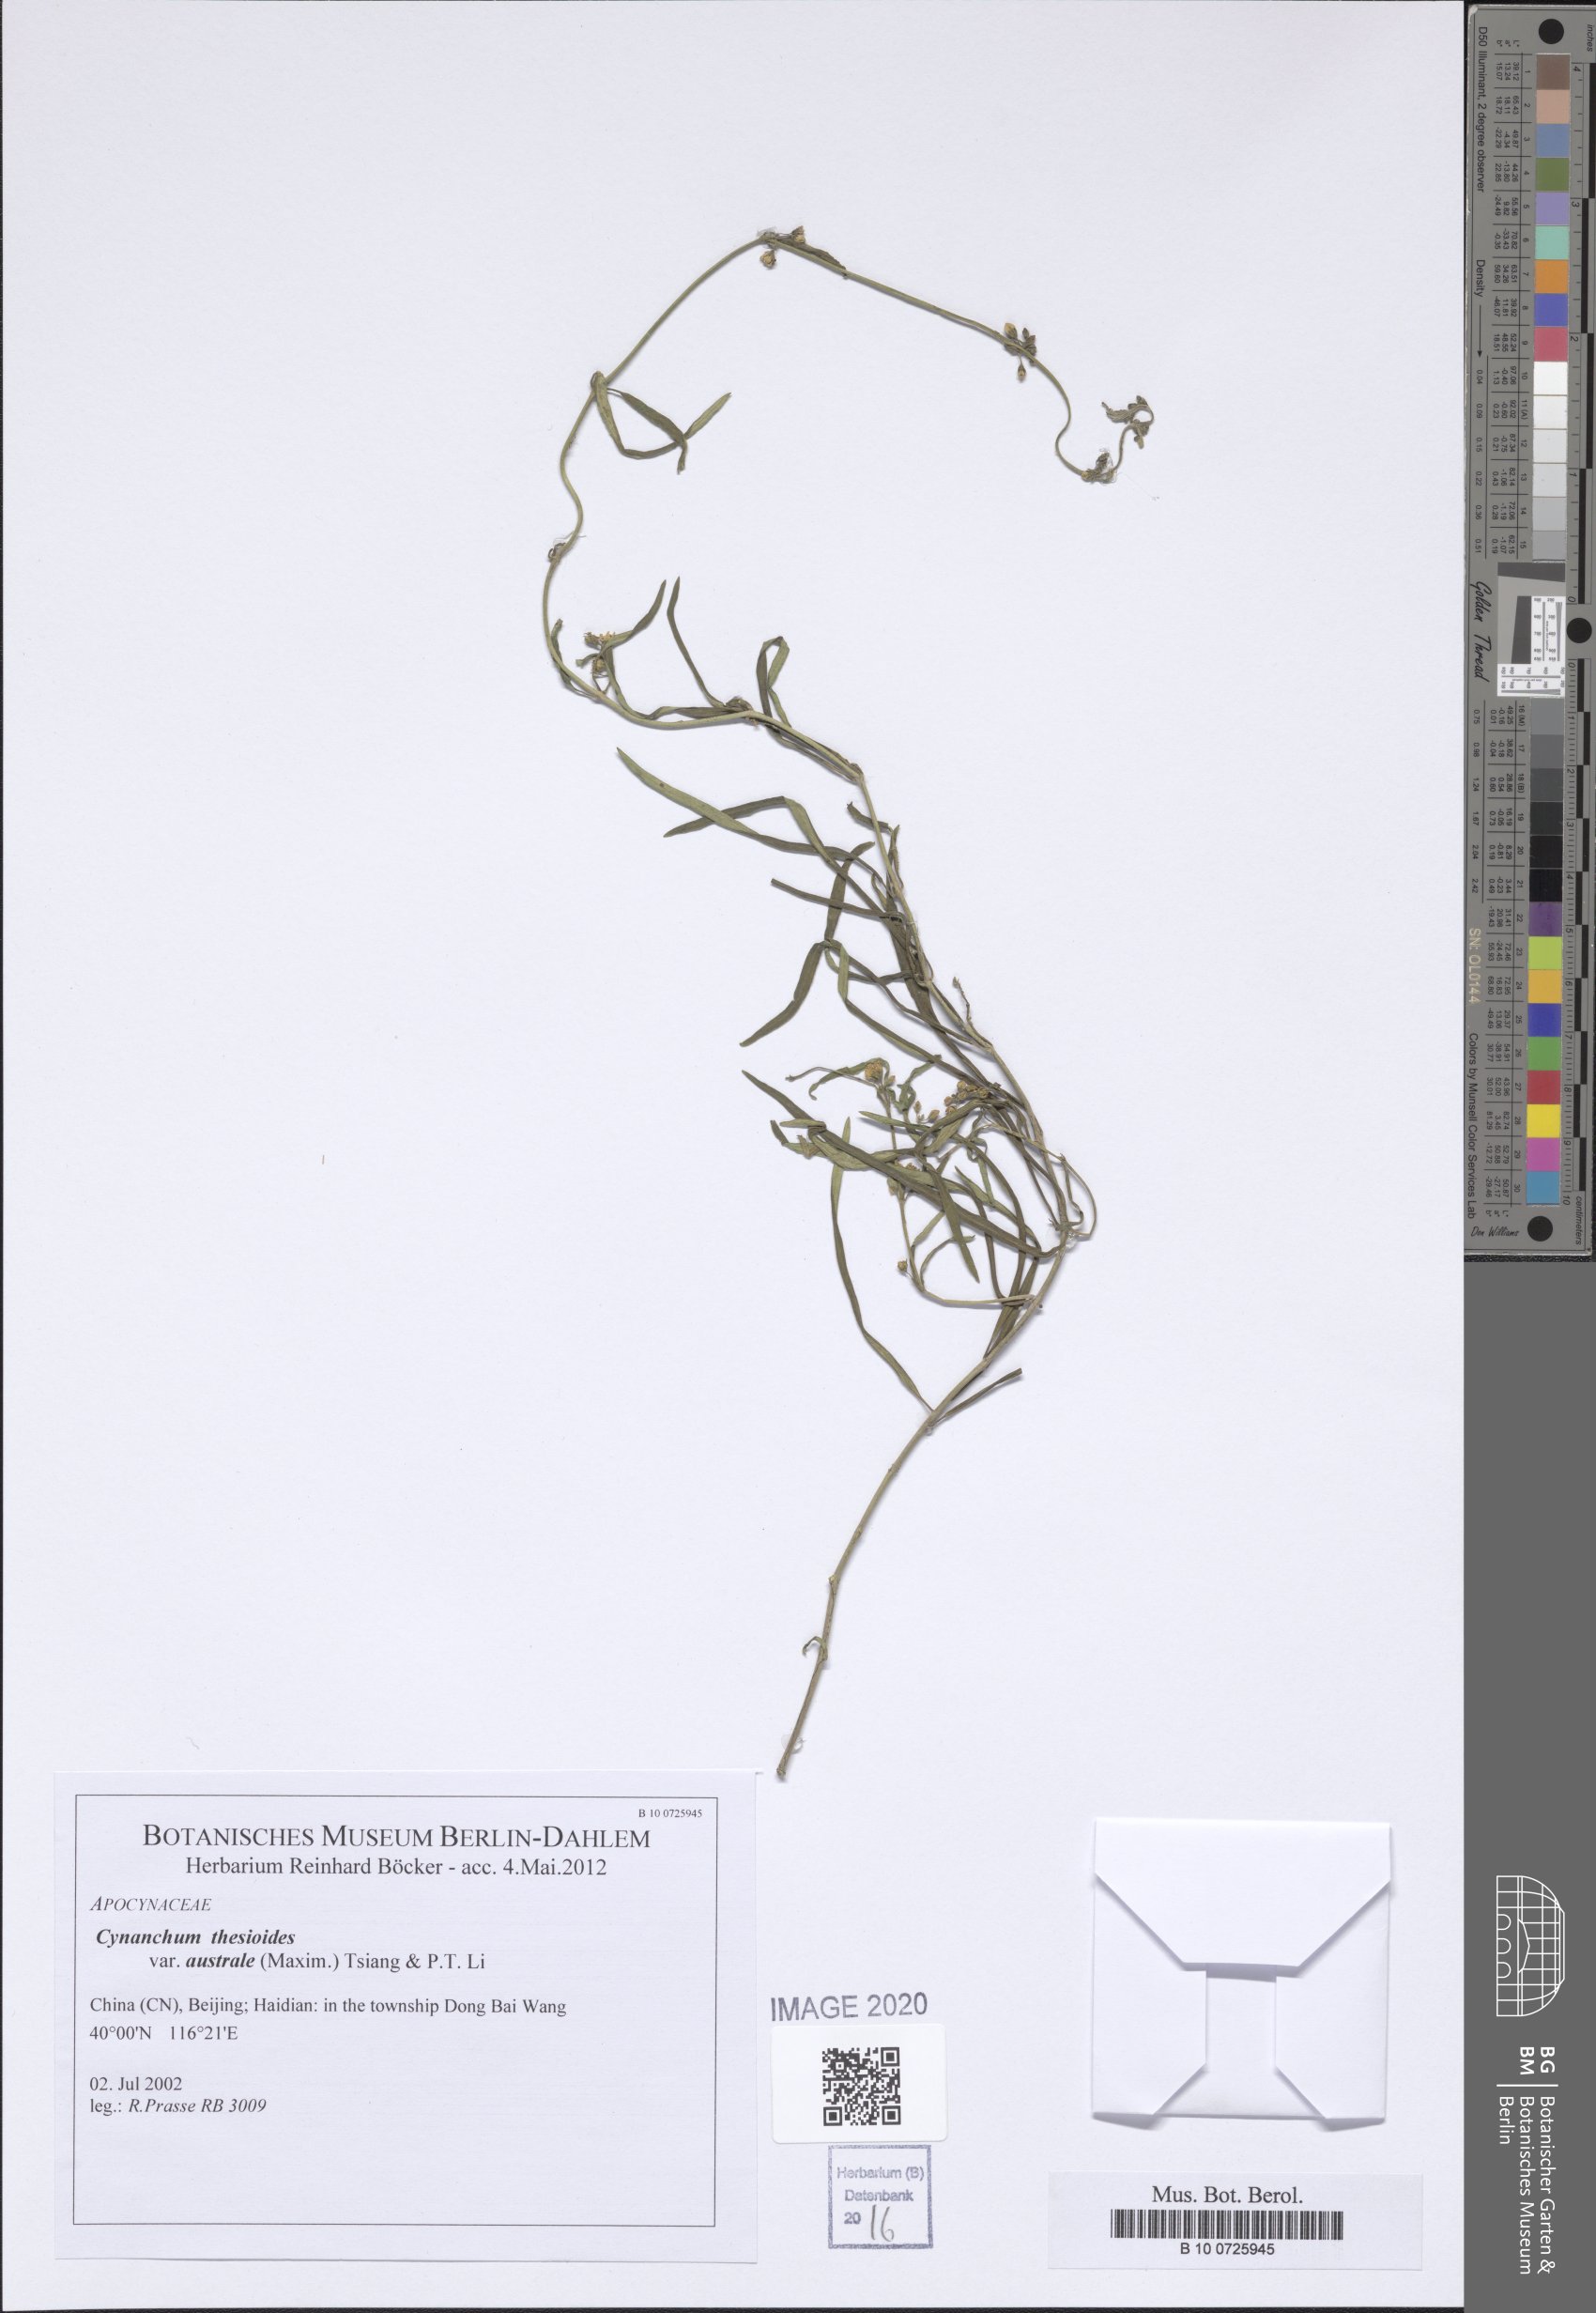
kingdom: Plantae
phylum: Tracheophyta
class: Magnoliopsida
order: Gentianales
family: Apocynaceae
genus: Cynanchum
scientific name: Cynanchum thesioides
